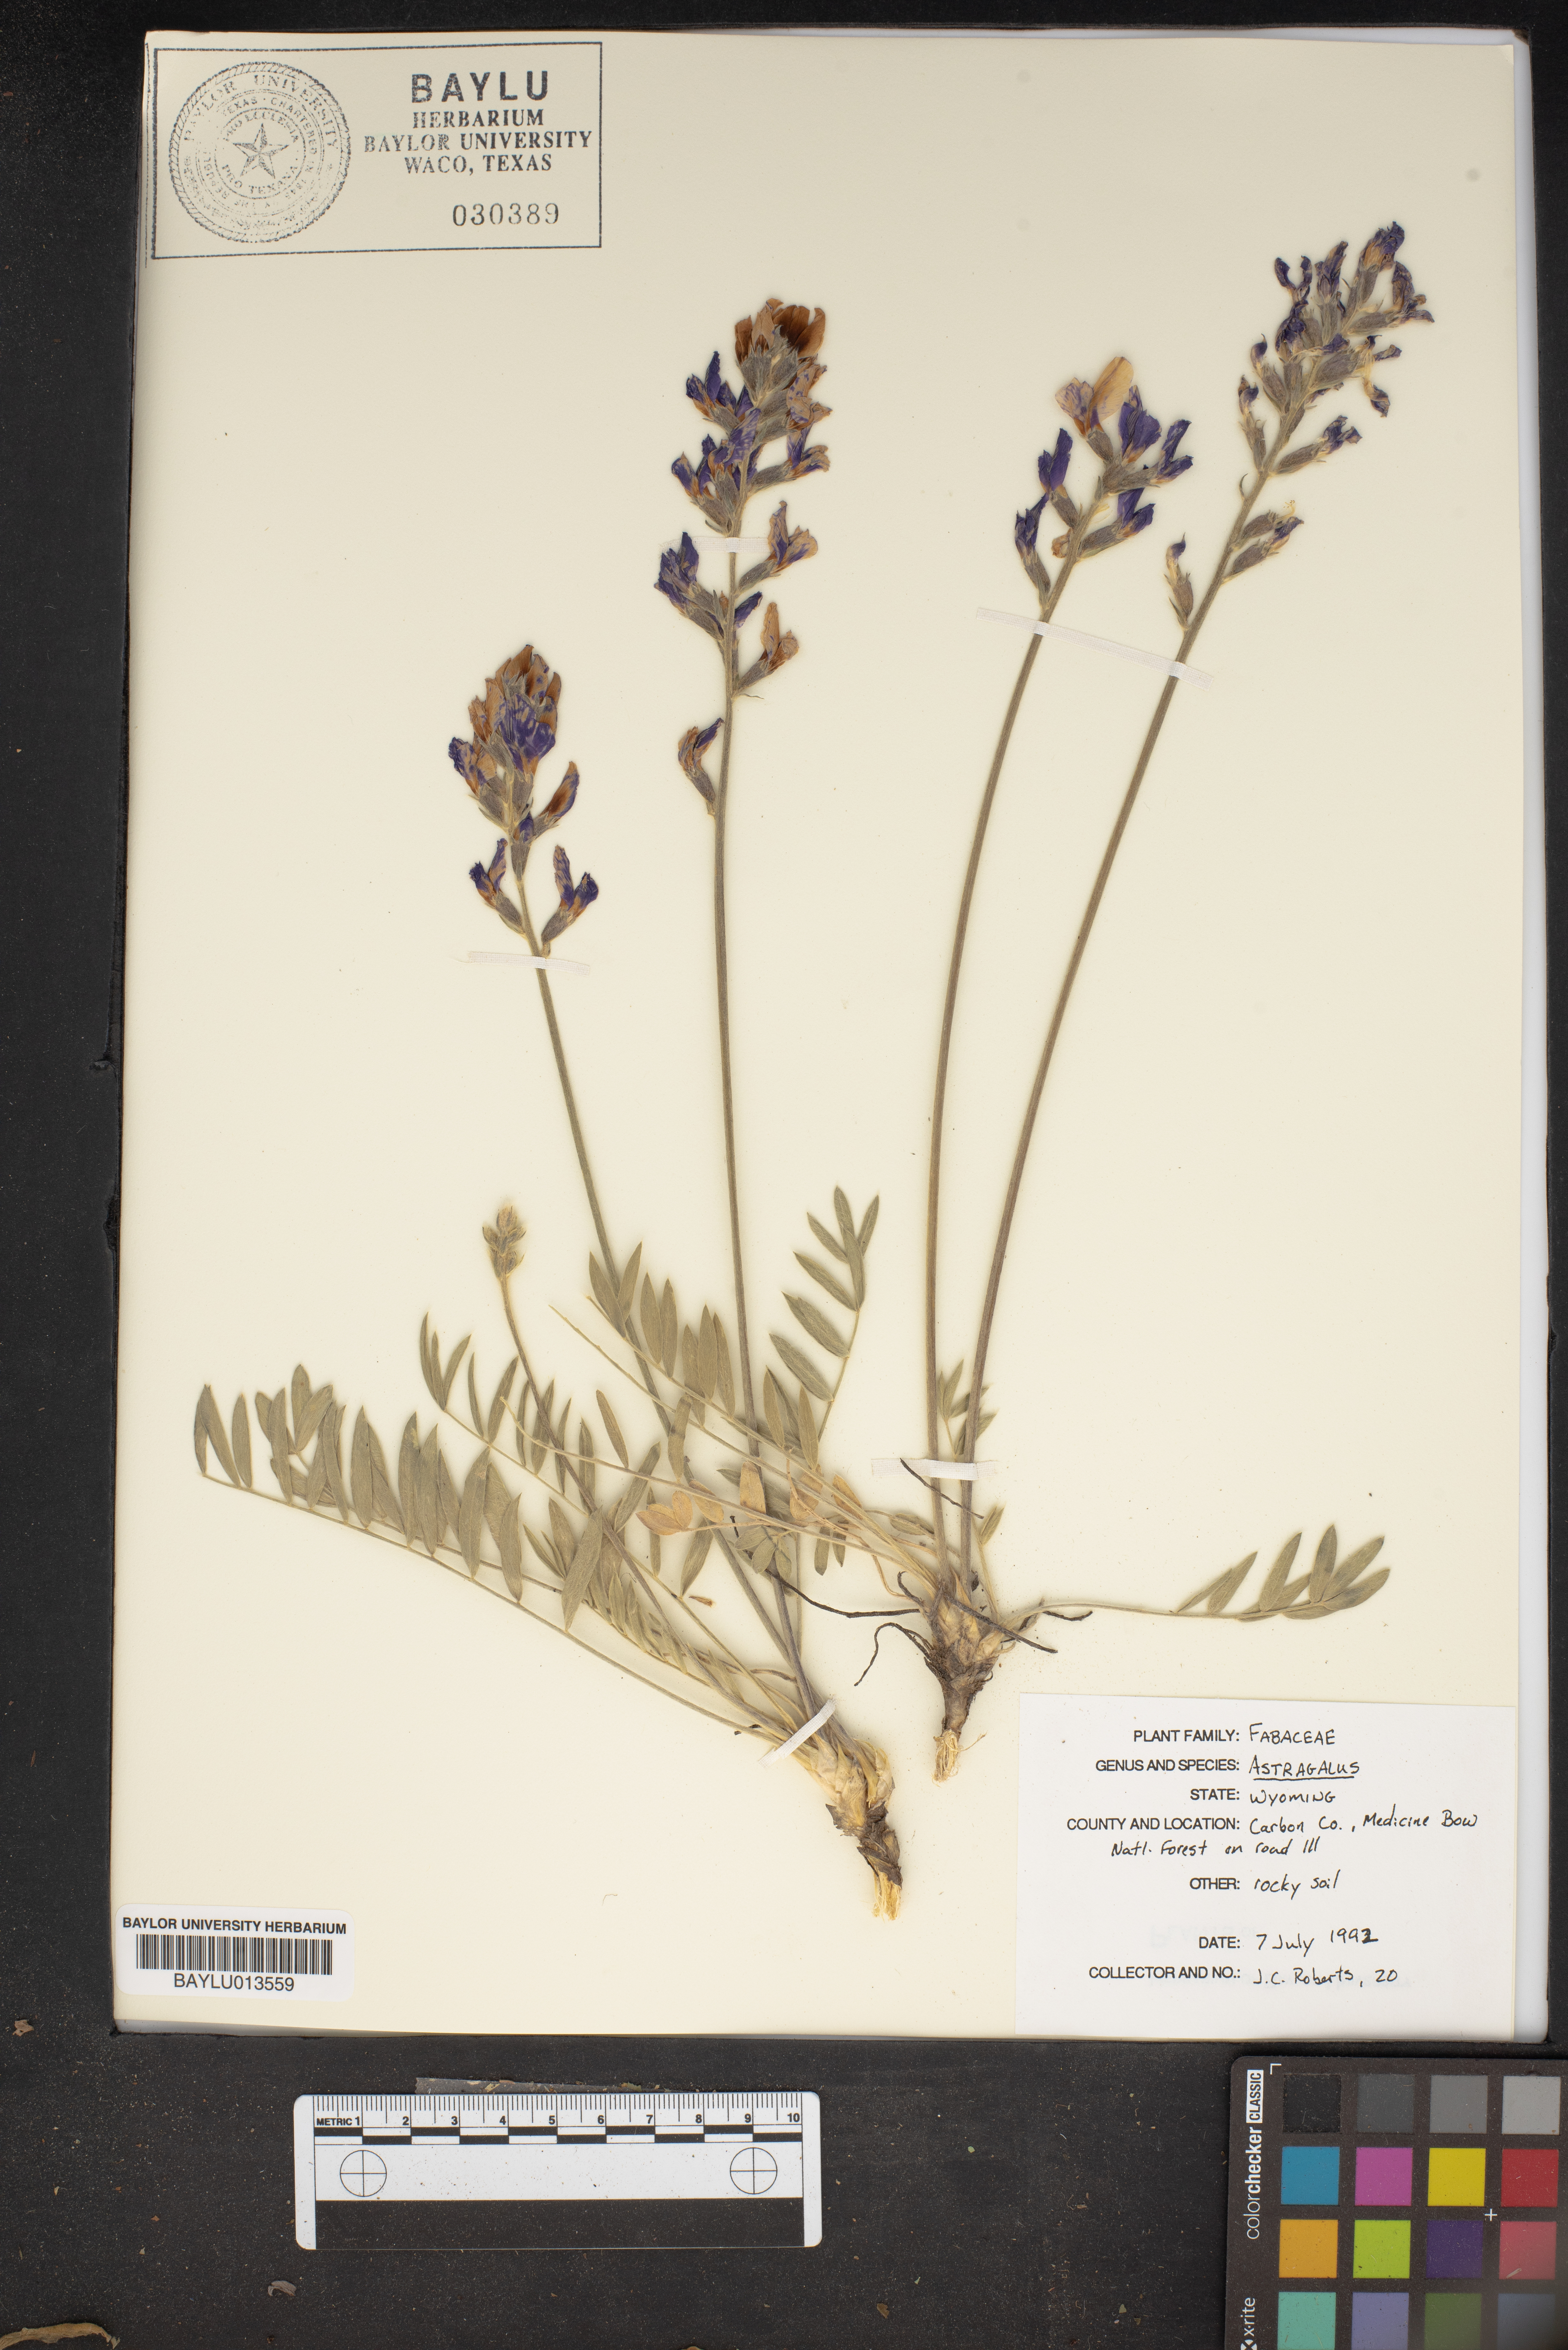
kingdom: Plantae
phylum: Tracheophyta
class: Magnoliopsida
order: Fabales
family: Fabaceae
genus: Astragalus
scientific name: Astragalus
